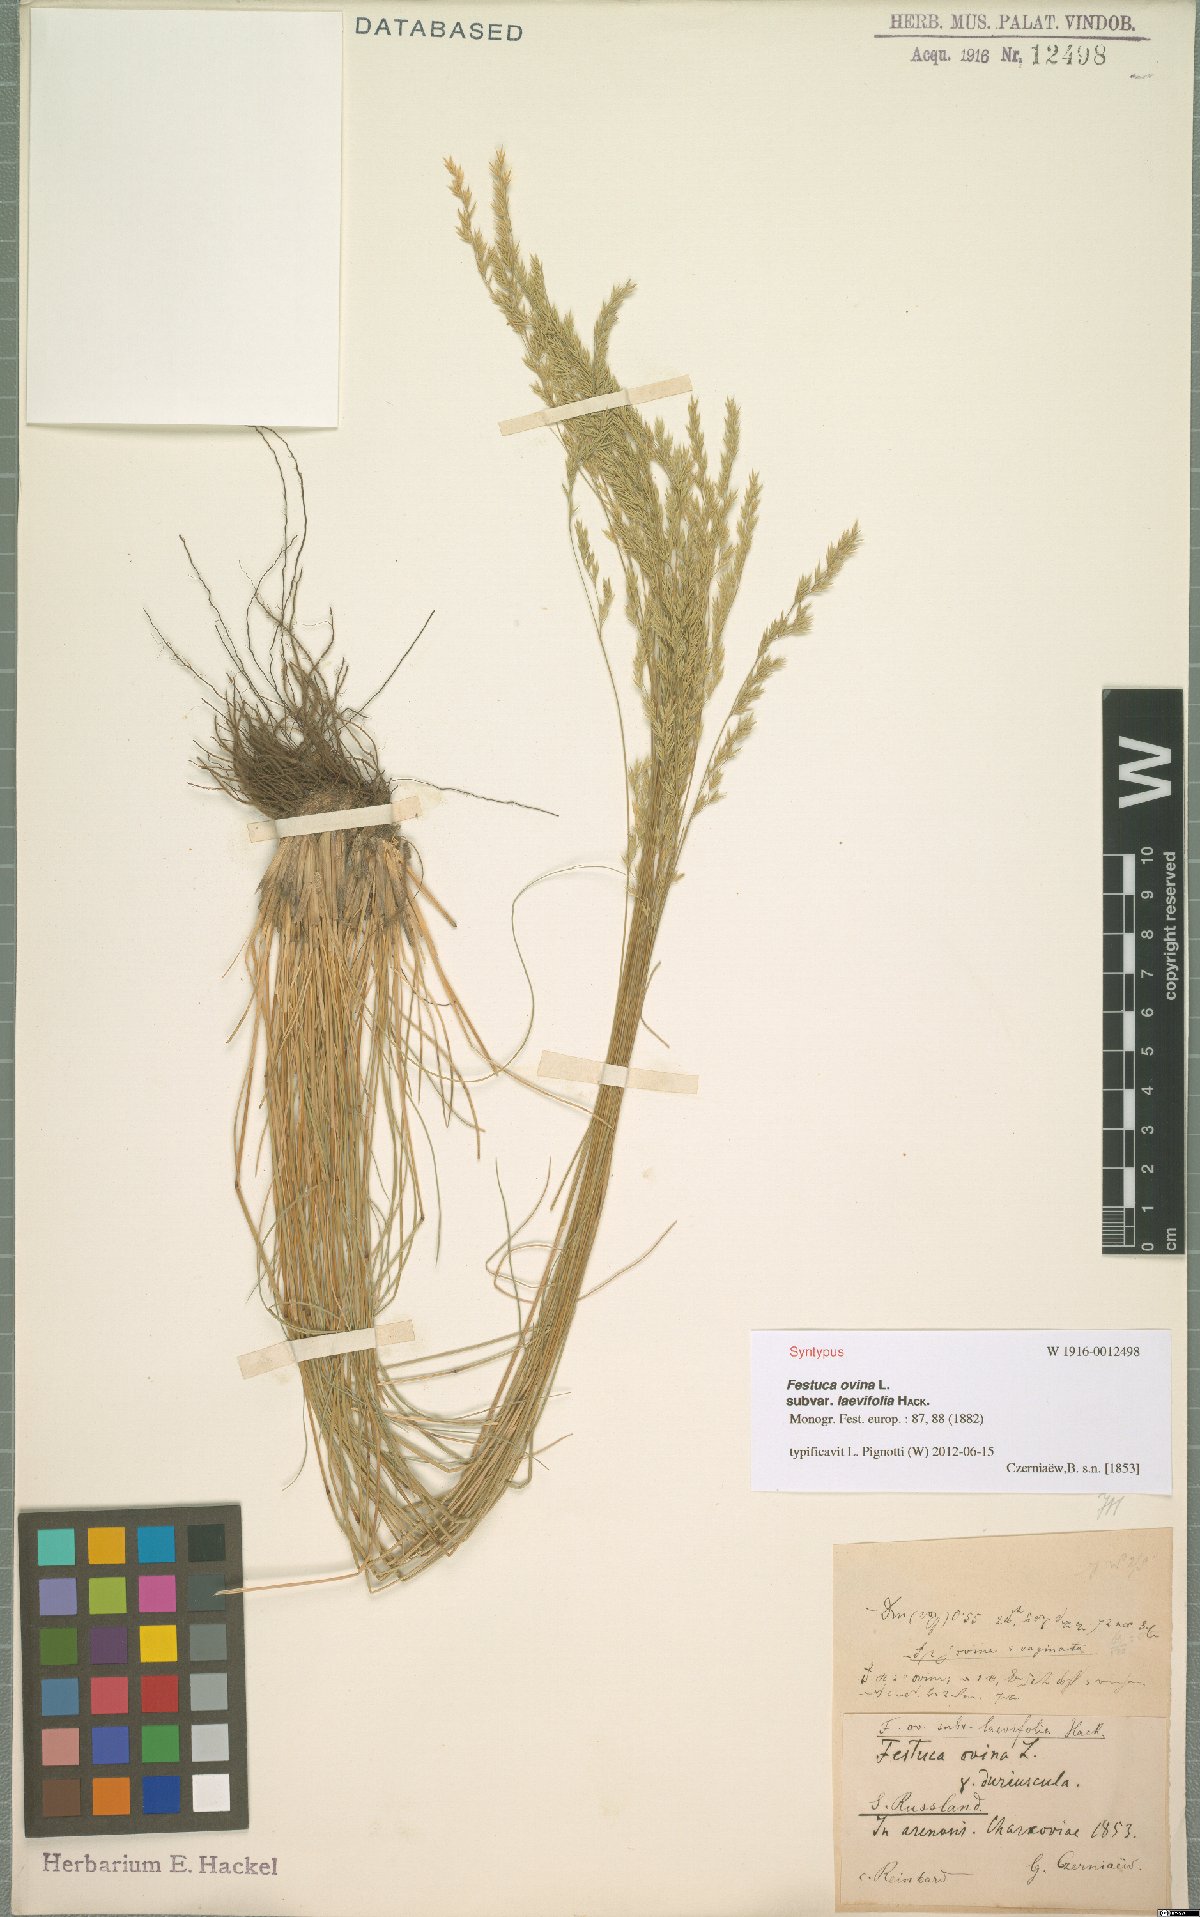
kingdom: Plantae
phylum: Tracheophyta
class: Liliopsida
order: Poales
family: Poaceae
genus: Festuca
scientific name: Festuca ovina
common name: Sheep fescue
